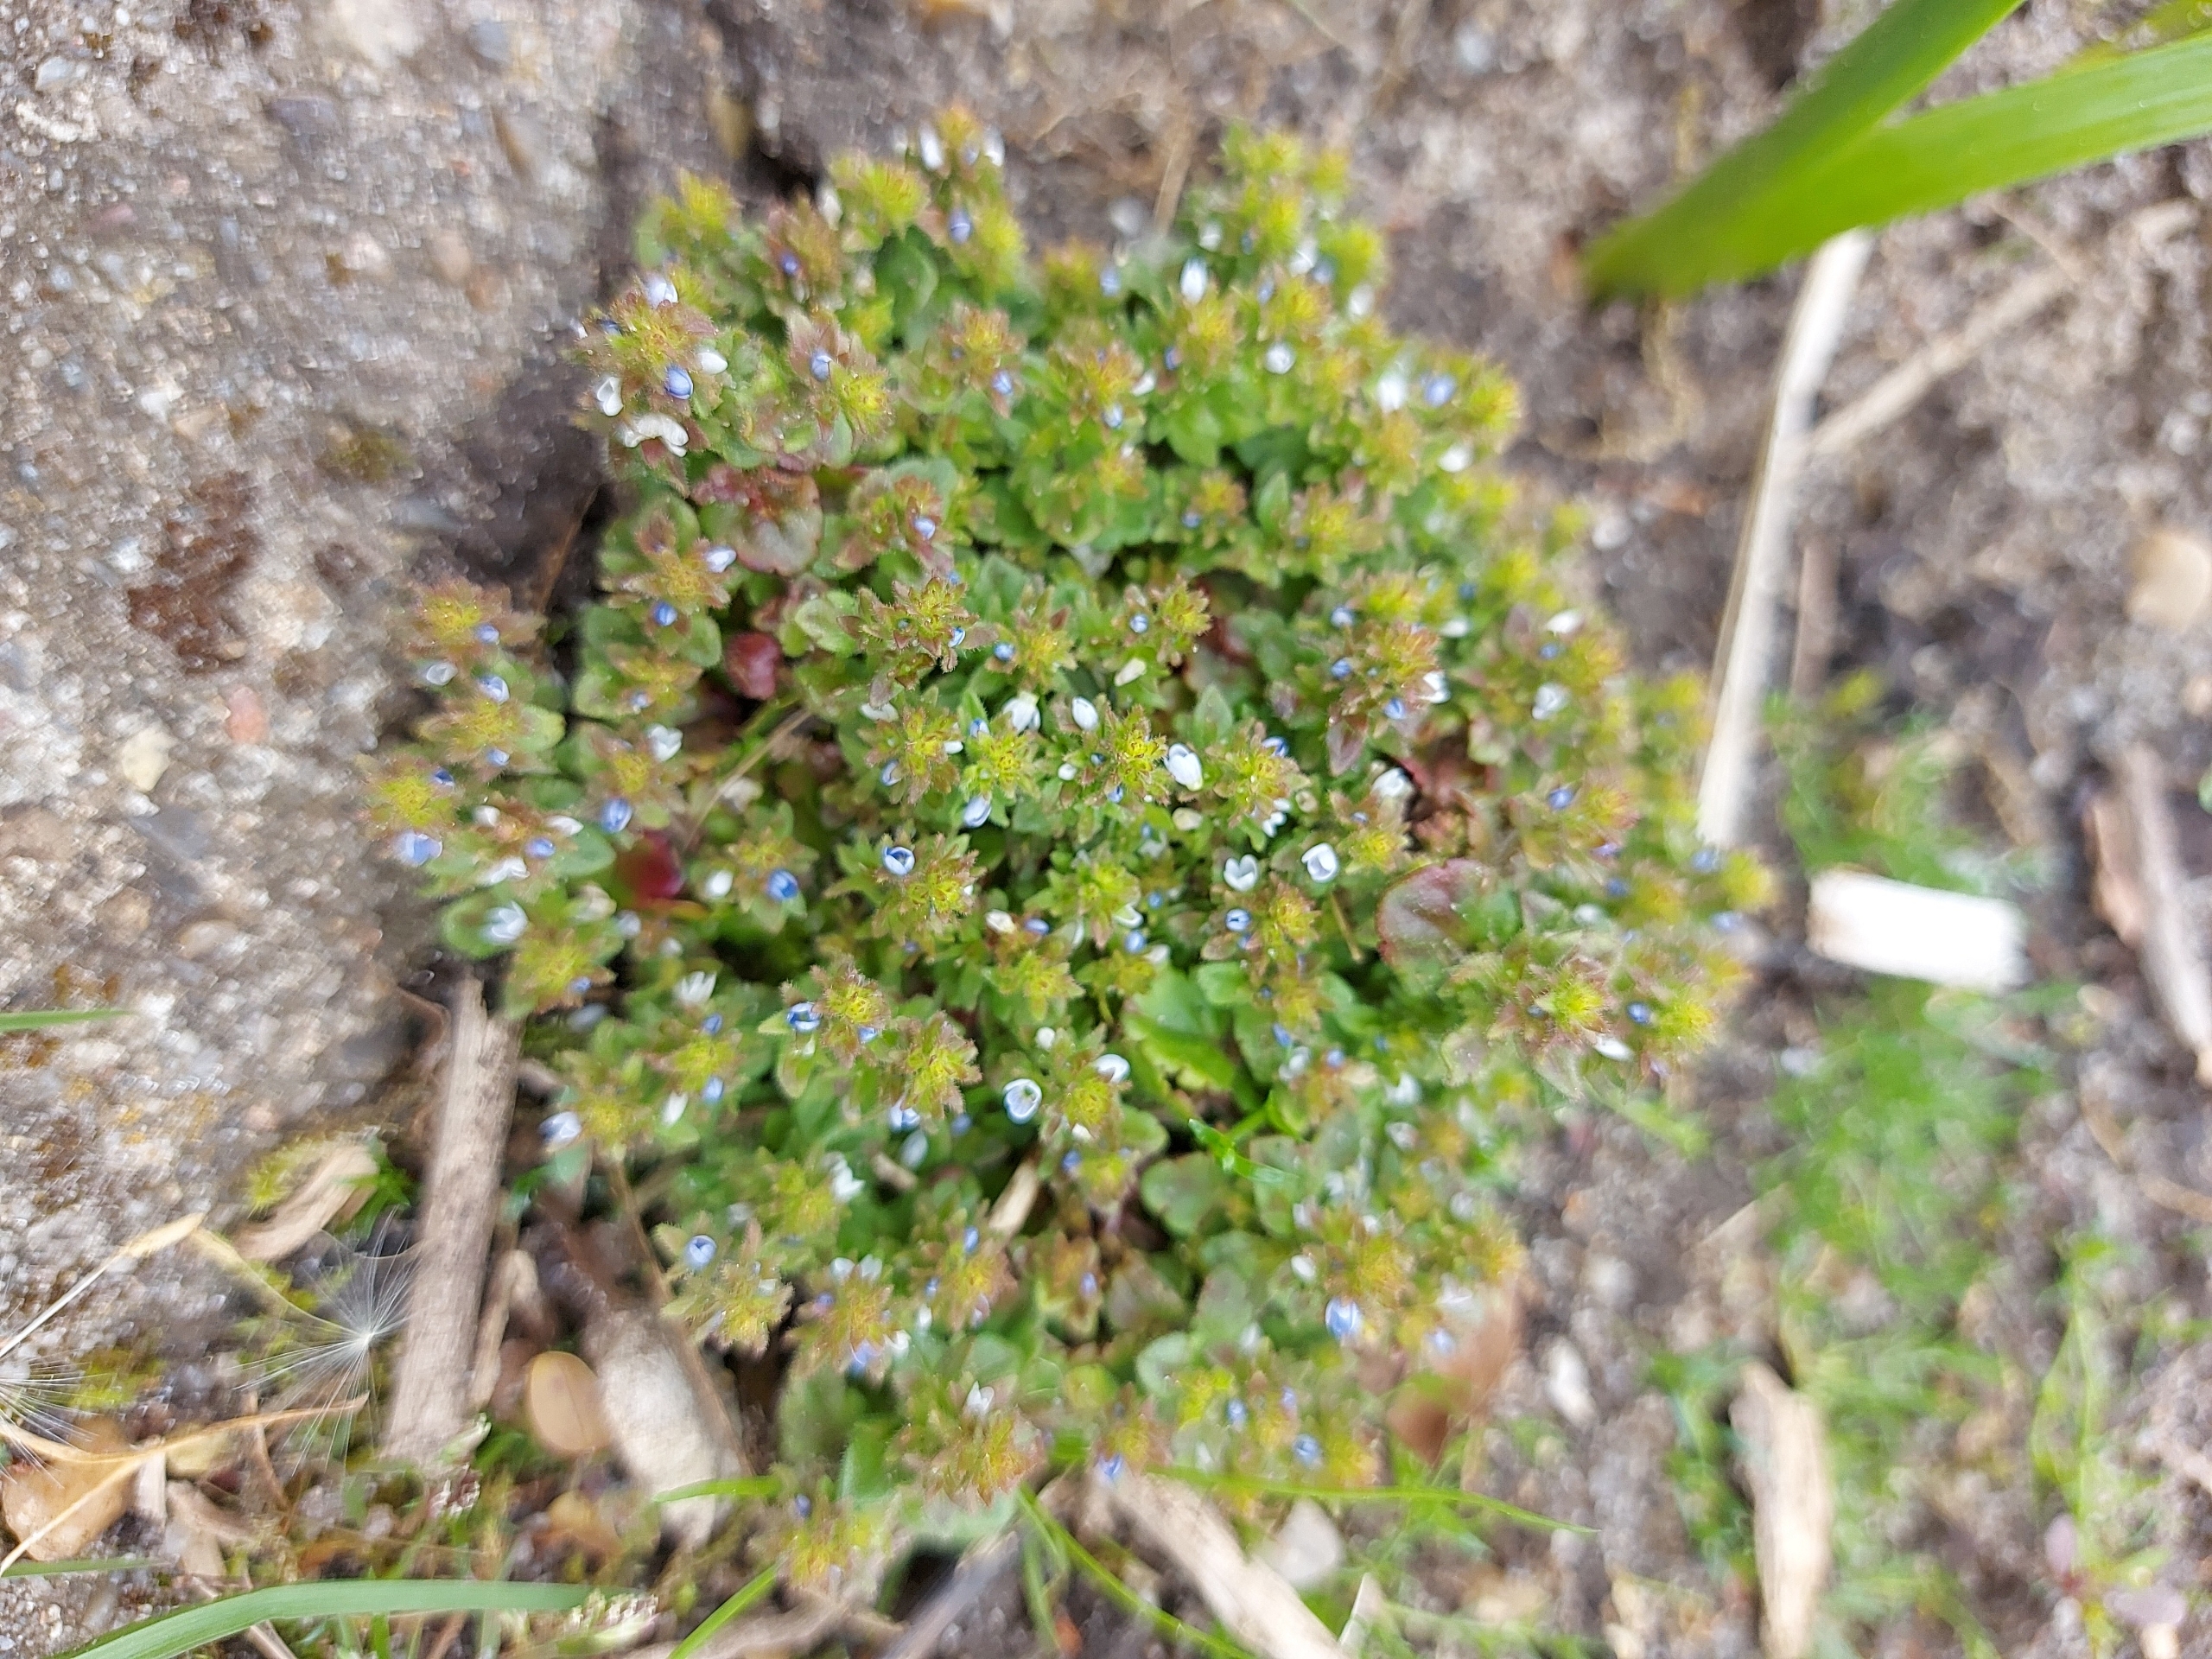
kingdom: Plantae
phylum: Tracheophyta
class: Magnoliopsida
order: Lamiales
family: Plantaginaceae
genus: Veronica
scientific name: Veronica arvensis
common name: Mark-ærenpris
